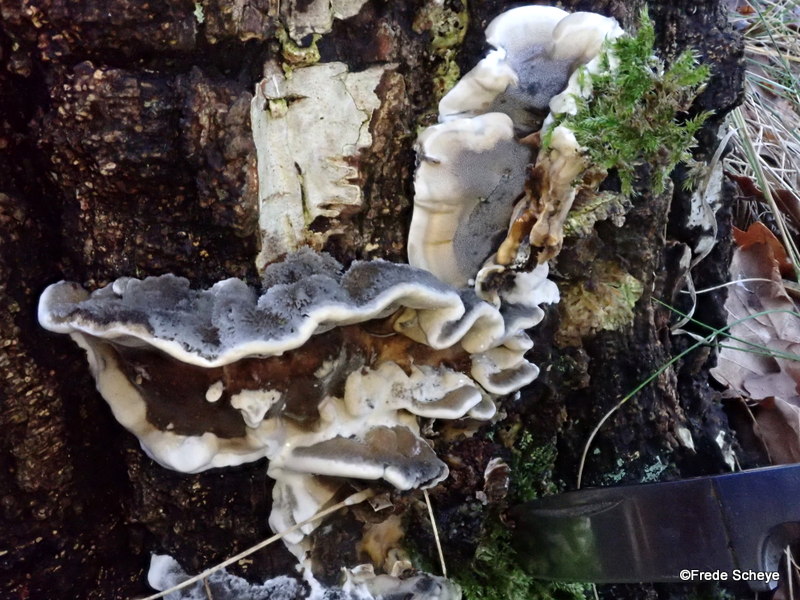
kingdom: Fungi
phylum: Basidiomycota
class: Agaricomycetes
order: Polyporales
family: Phanerochaetaceae
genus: Bjerkandera
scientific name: Bjerkandera adusta
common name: sveden sodporesvamp
